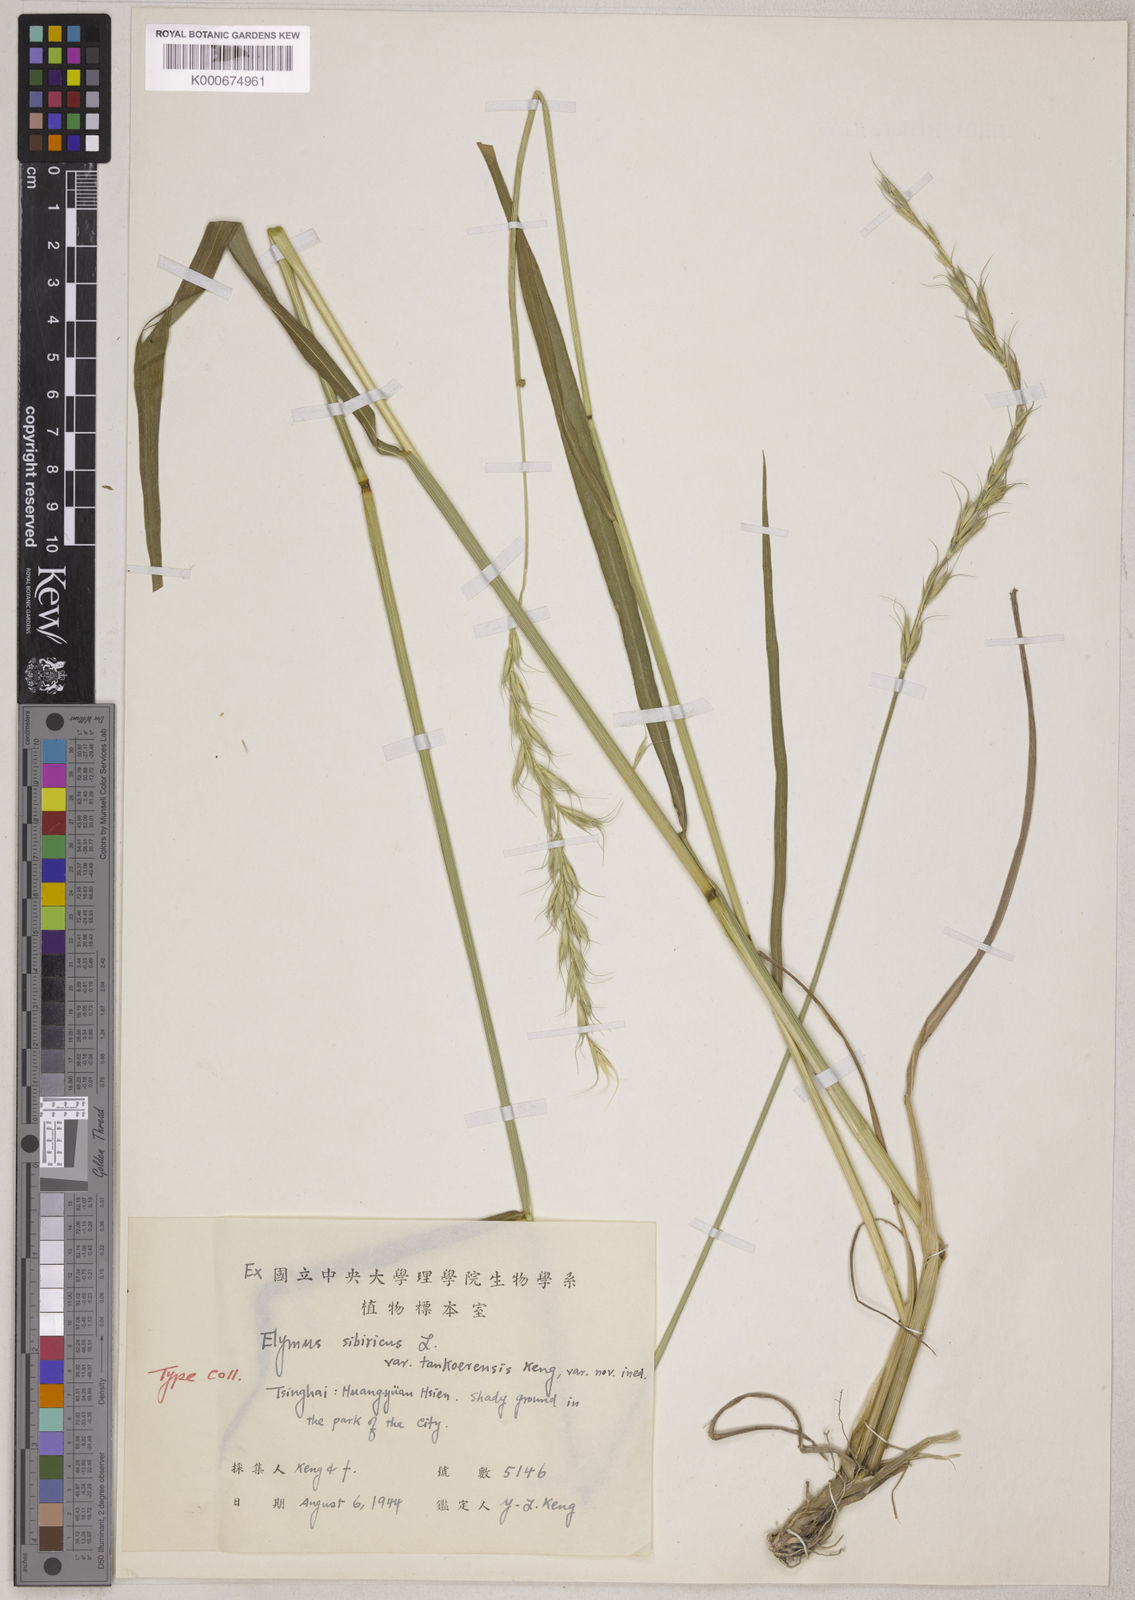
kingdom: Plantae
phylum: Tracheophyta
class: Liliopsida
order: Poales
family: Poaceae
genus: Elymus
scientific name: Elymus sibiricus
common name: Siberian wildrye
